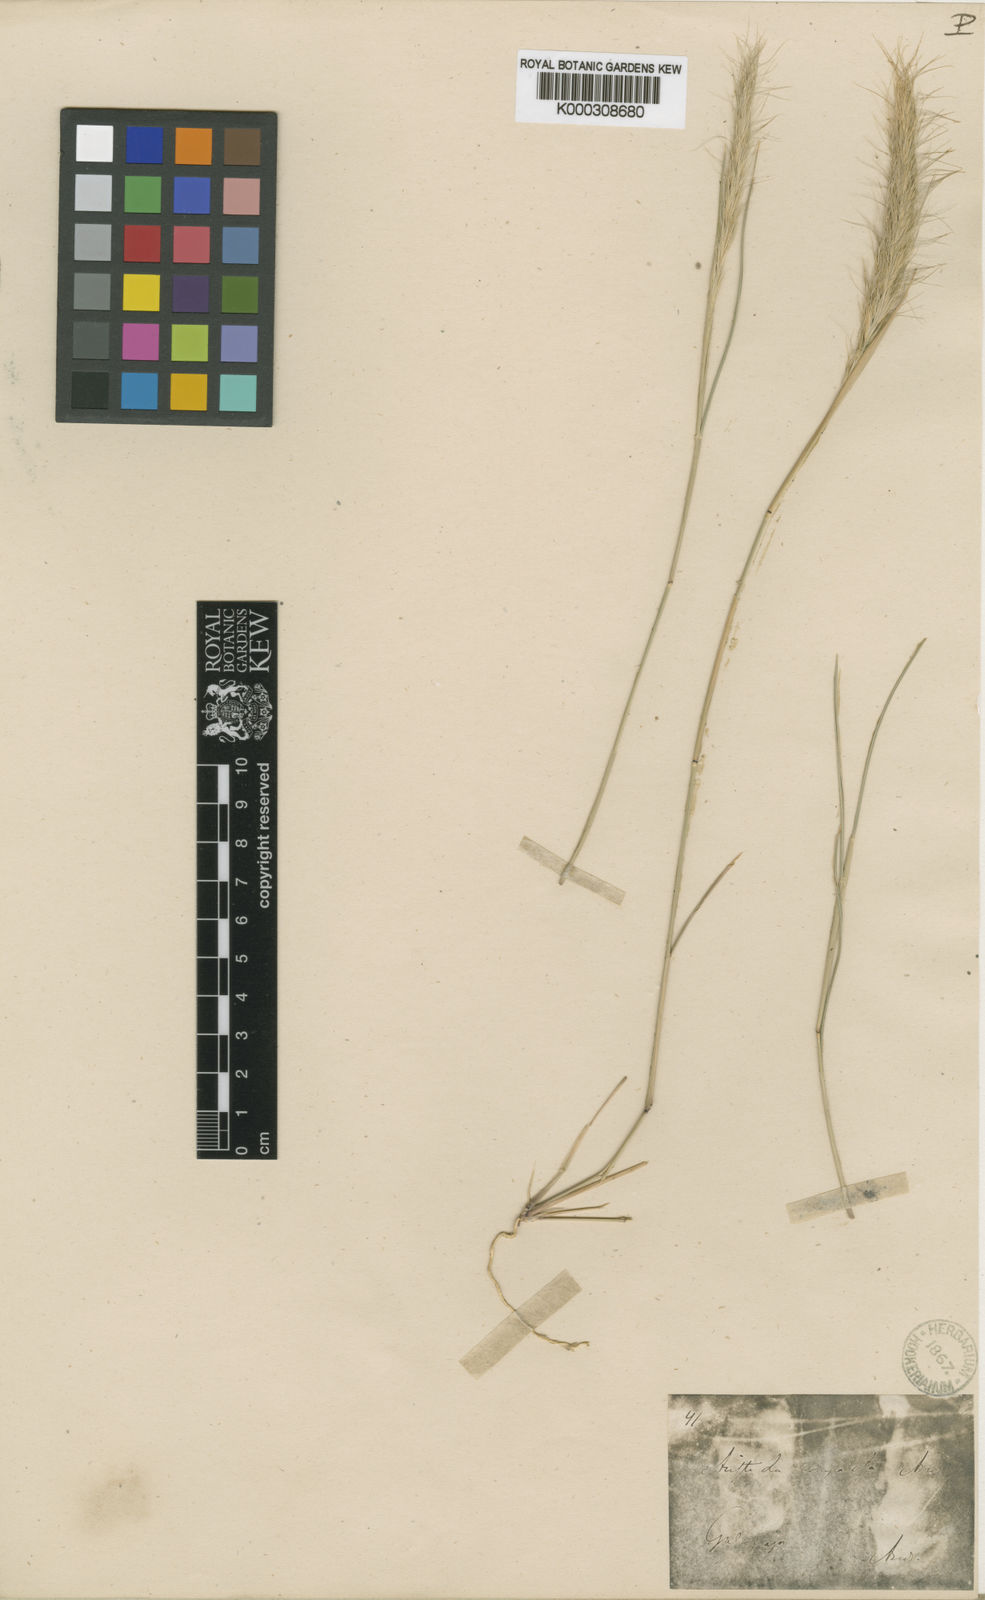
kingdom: Plantae
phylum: Tracheophyta
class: Liliopsida
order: Poales
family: Poaceae
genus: Aristida
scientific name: Aristida subspicata
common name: Galapagos three-awn grass
